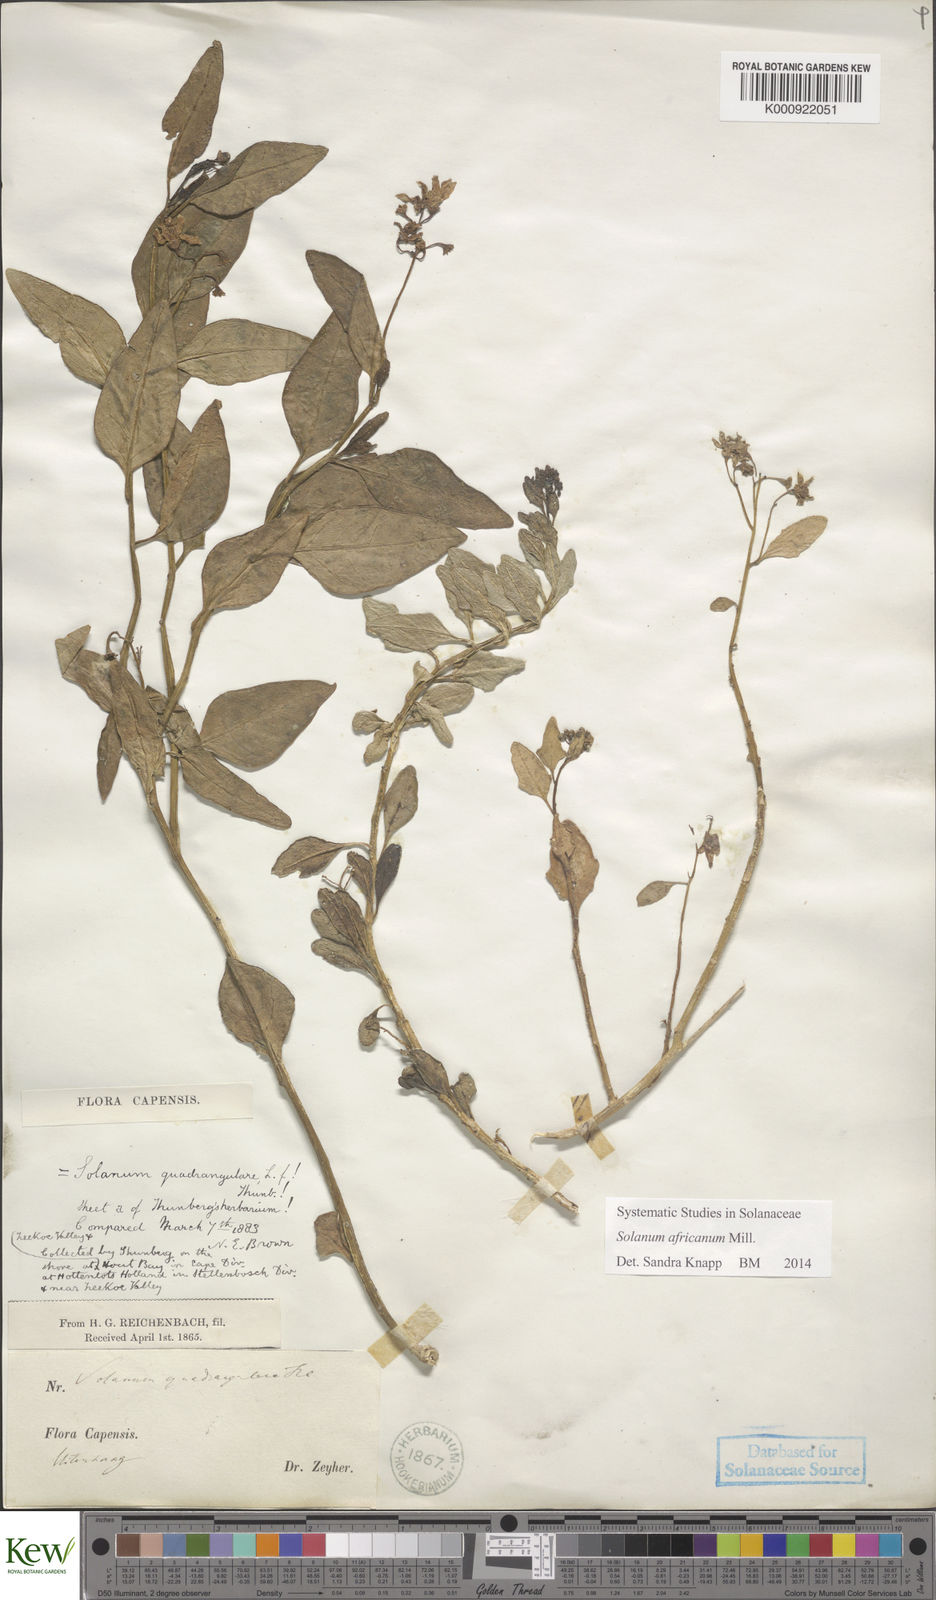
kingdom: Plantae
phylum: Tracheophyta
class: Magnoliopsida
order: Solanales
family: Solanaceae
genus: Solanum
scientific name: Solanum africanum
